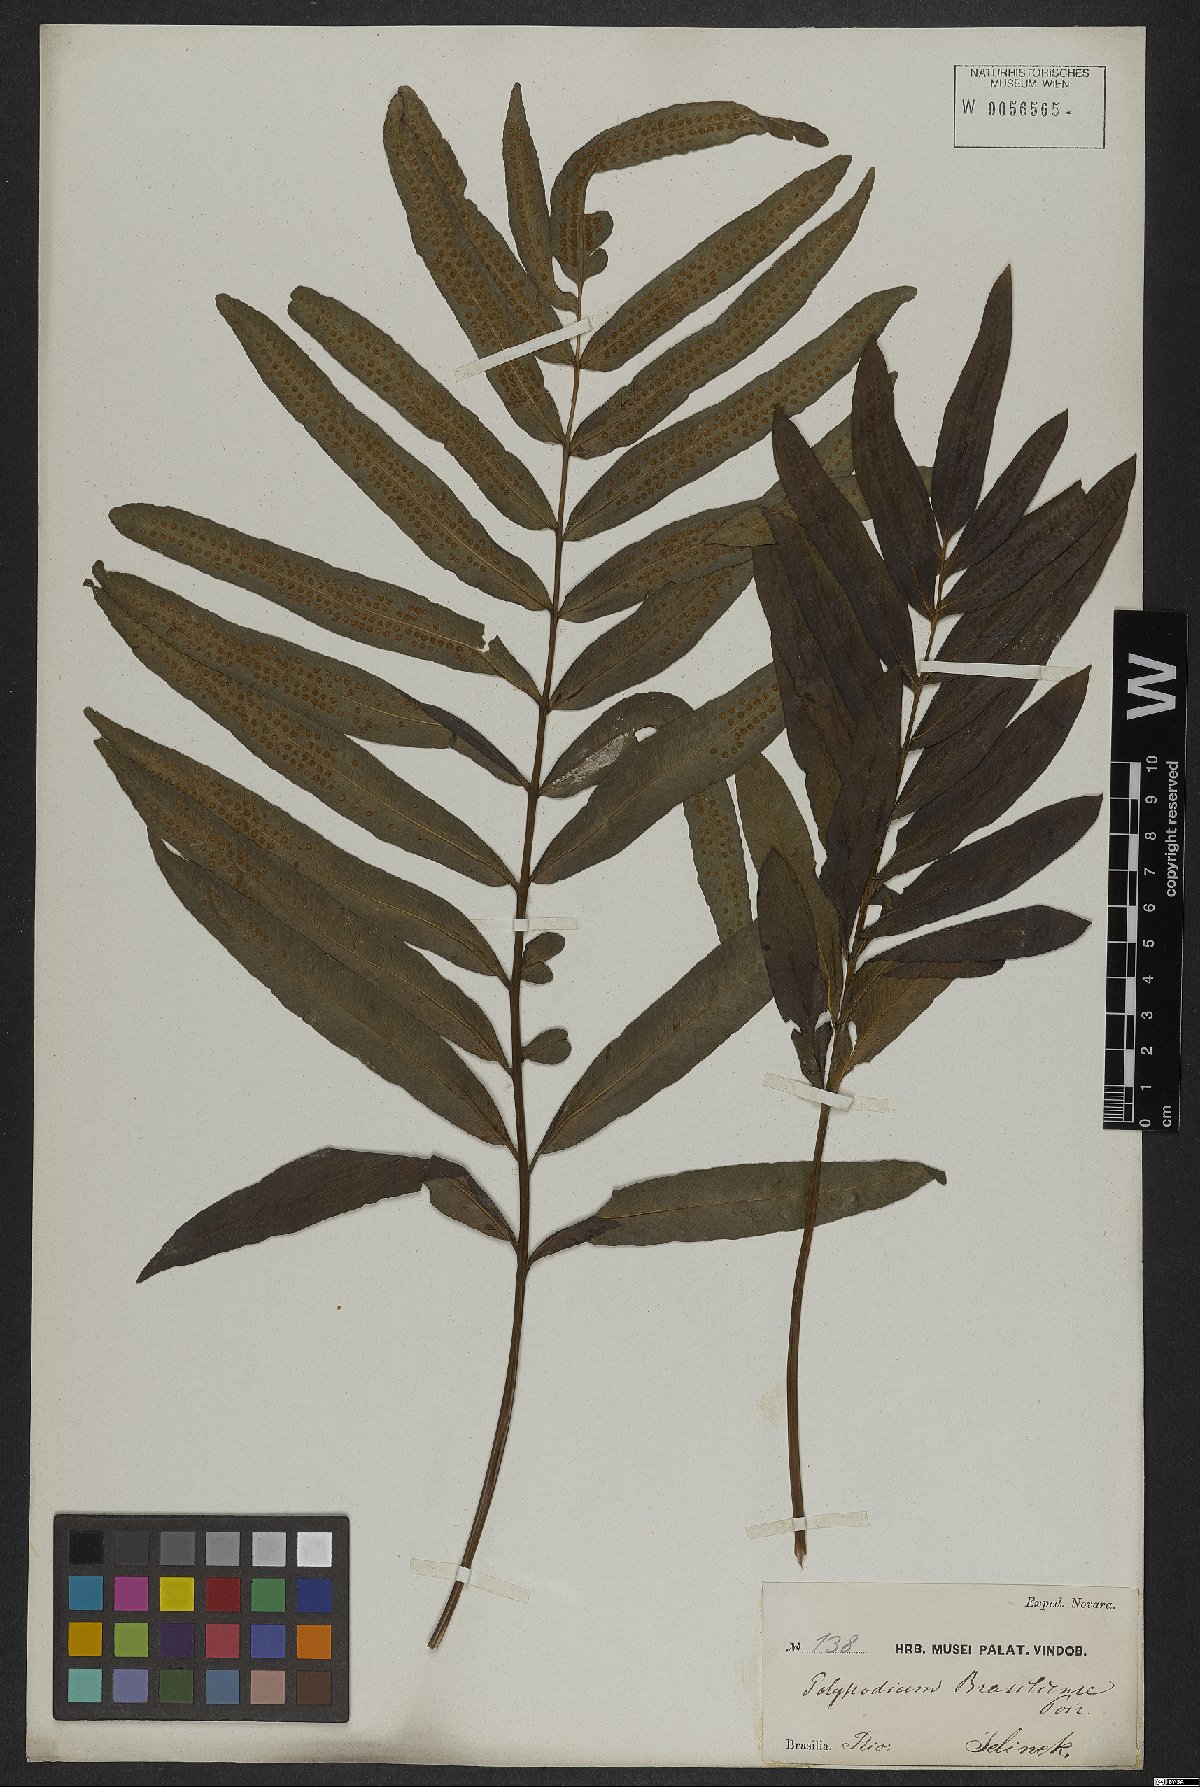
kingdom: Plantae
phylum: Tracheophyta
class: Polypodiopsida
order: Polypodiales
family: Polypodiaceae
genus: Serpocaulon
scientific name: Serpocaulon triseriale
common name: Angle-vein fern
